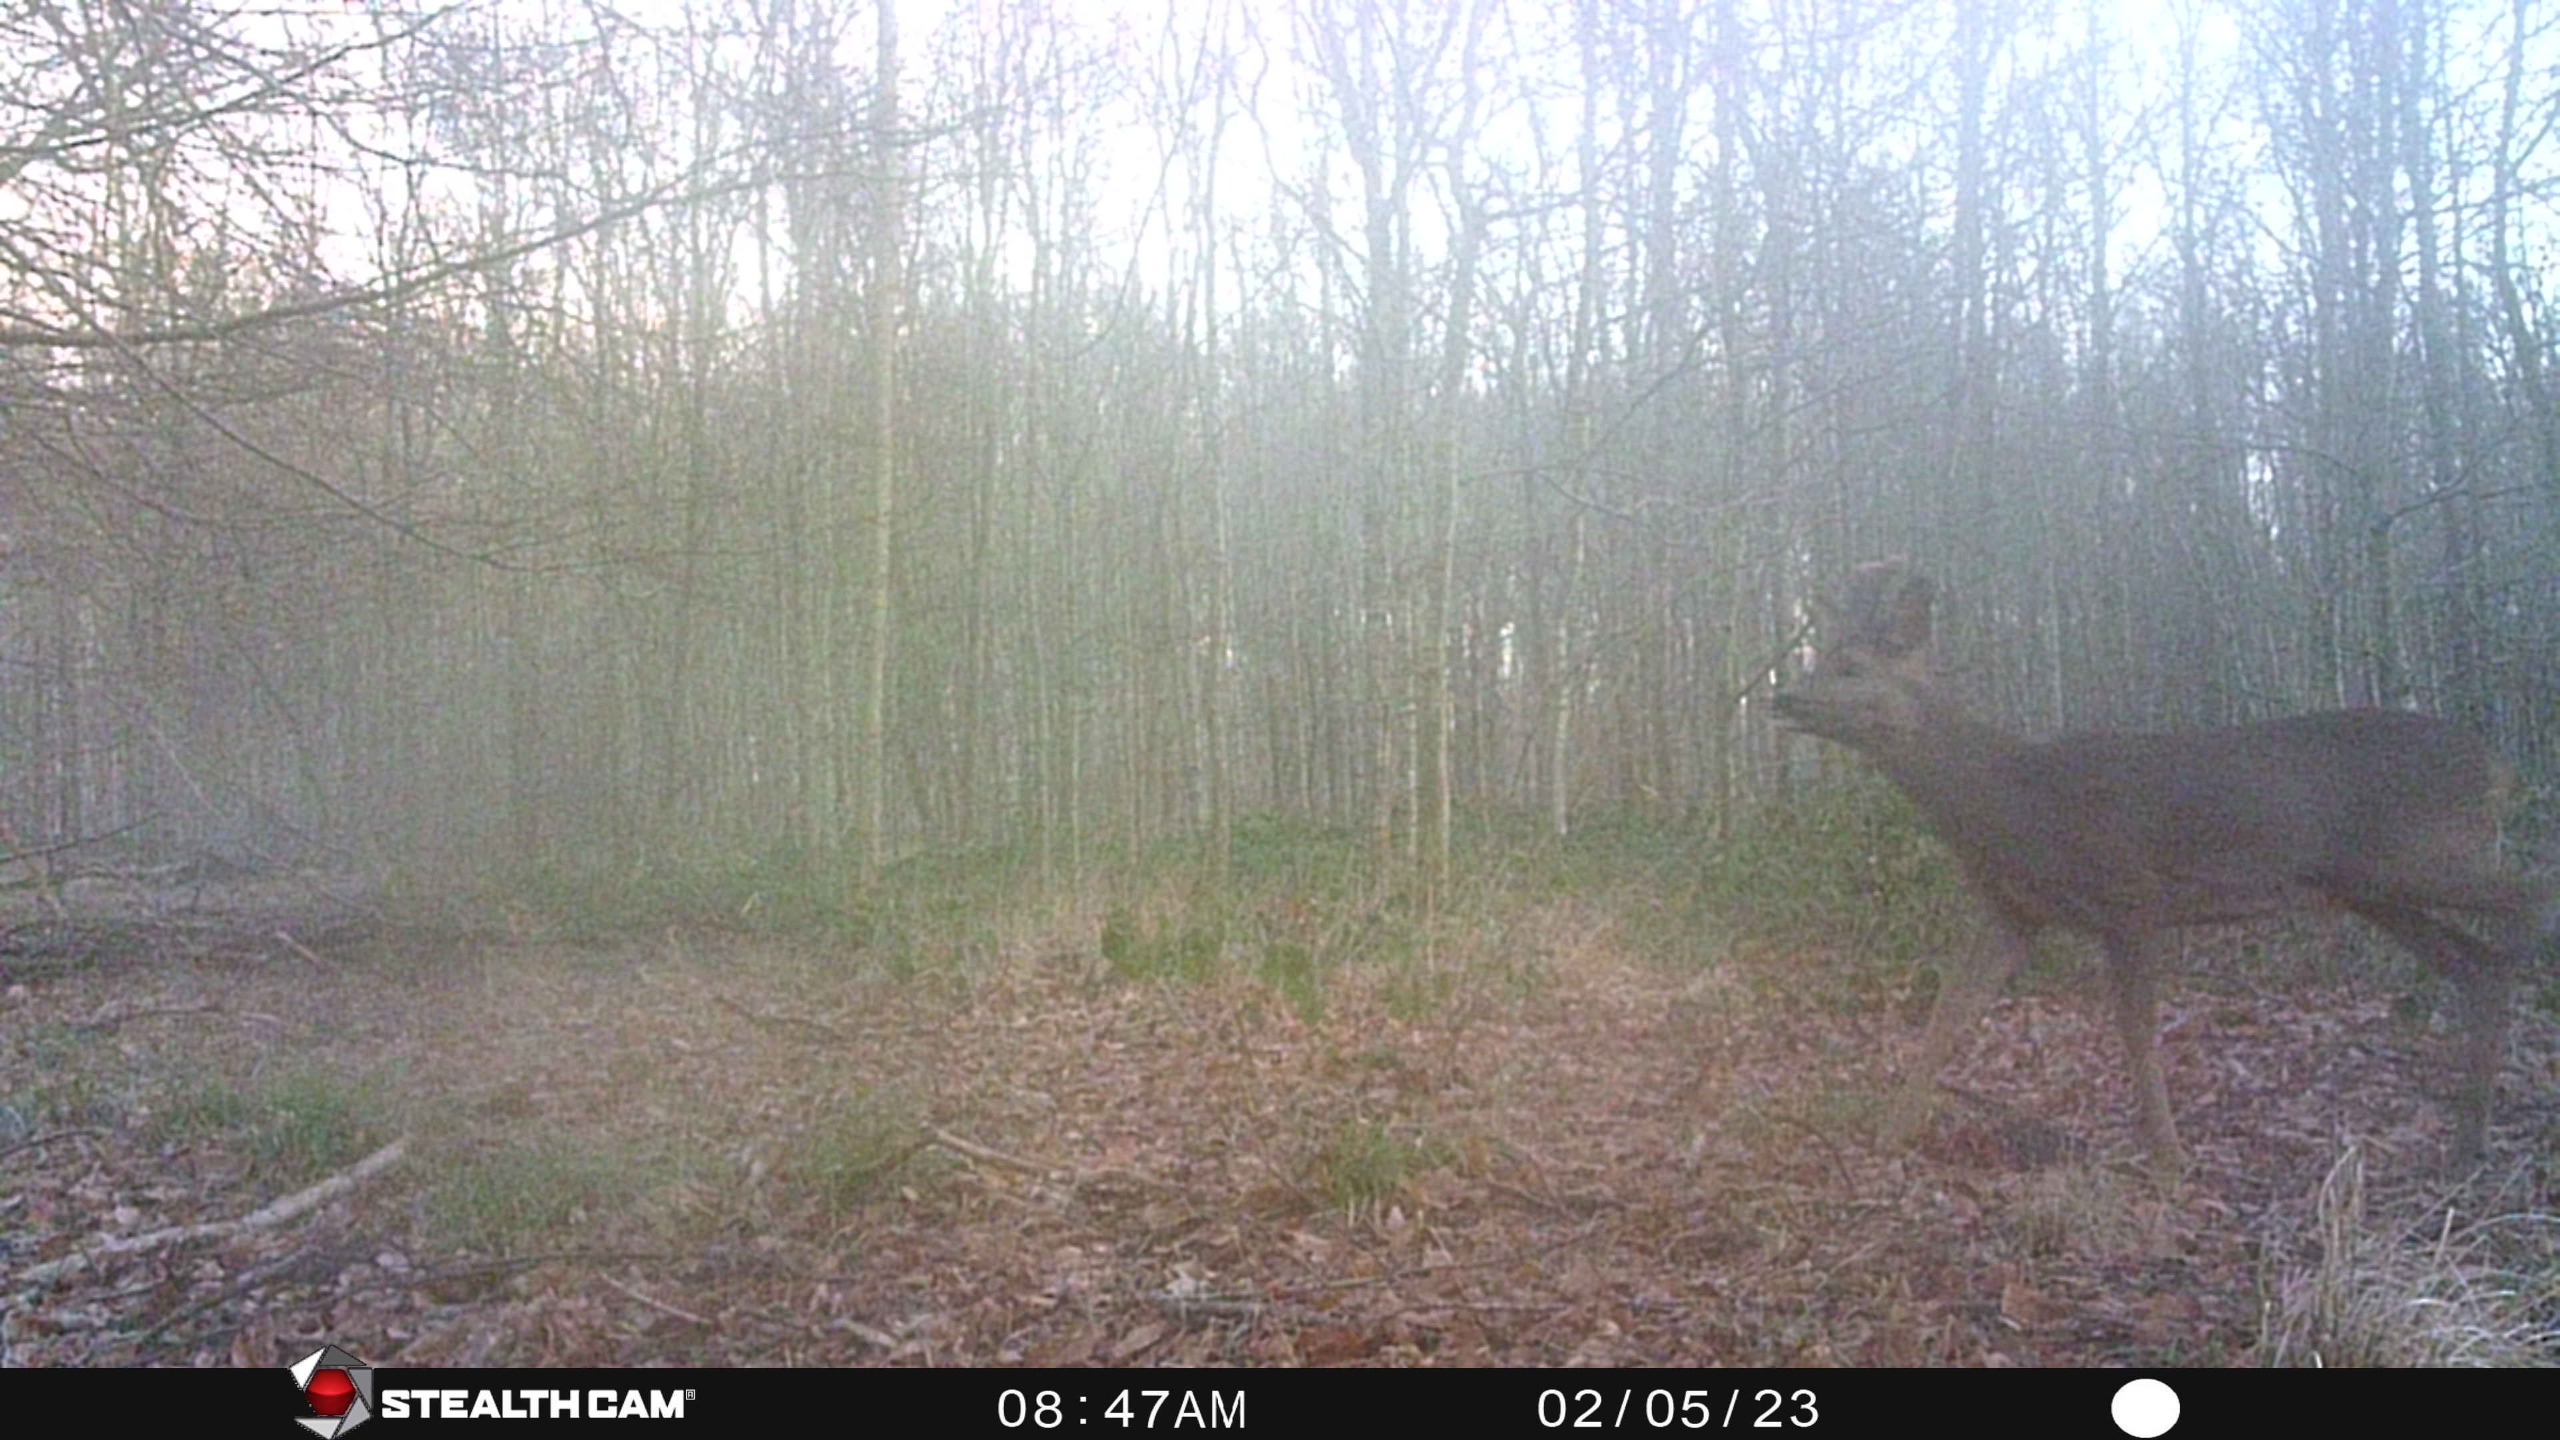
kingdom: Animalia
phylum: Chordata
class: Mammalia
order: Artiodactyla
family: Cervidae
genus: Capreolus
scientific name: Capreolus capreolus
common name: Rådyr
